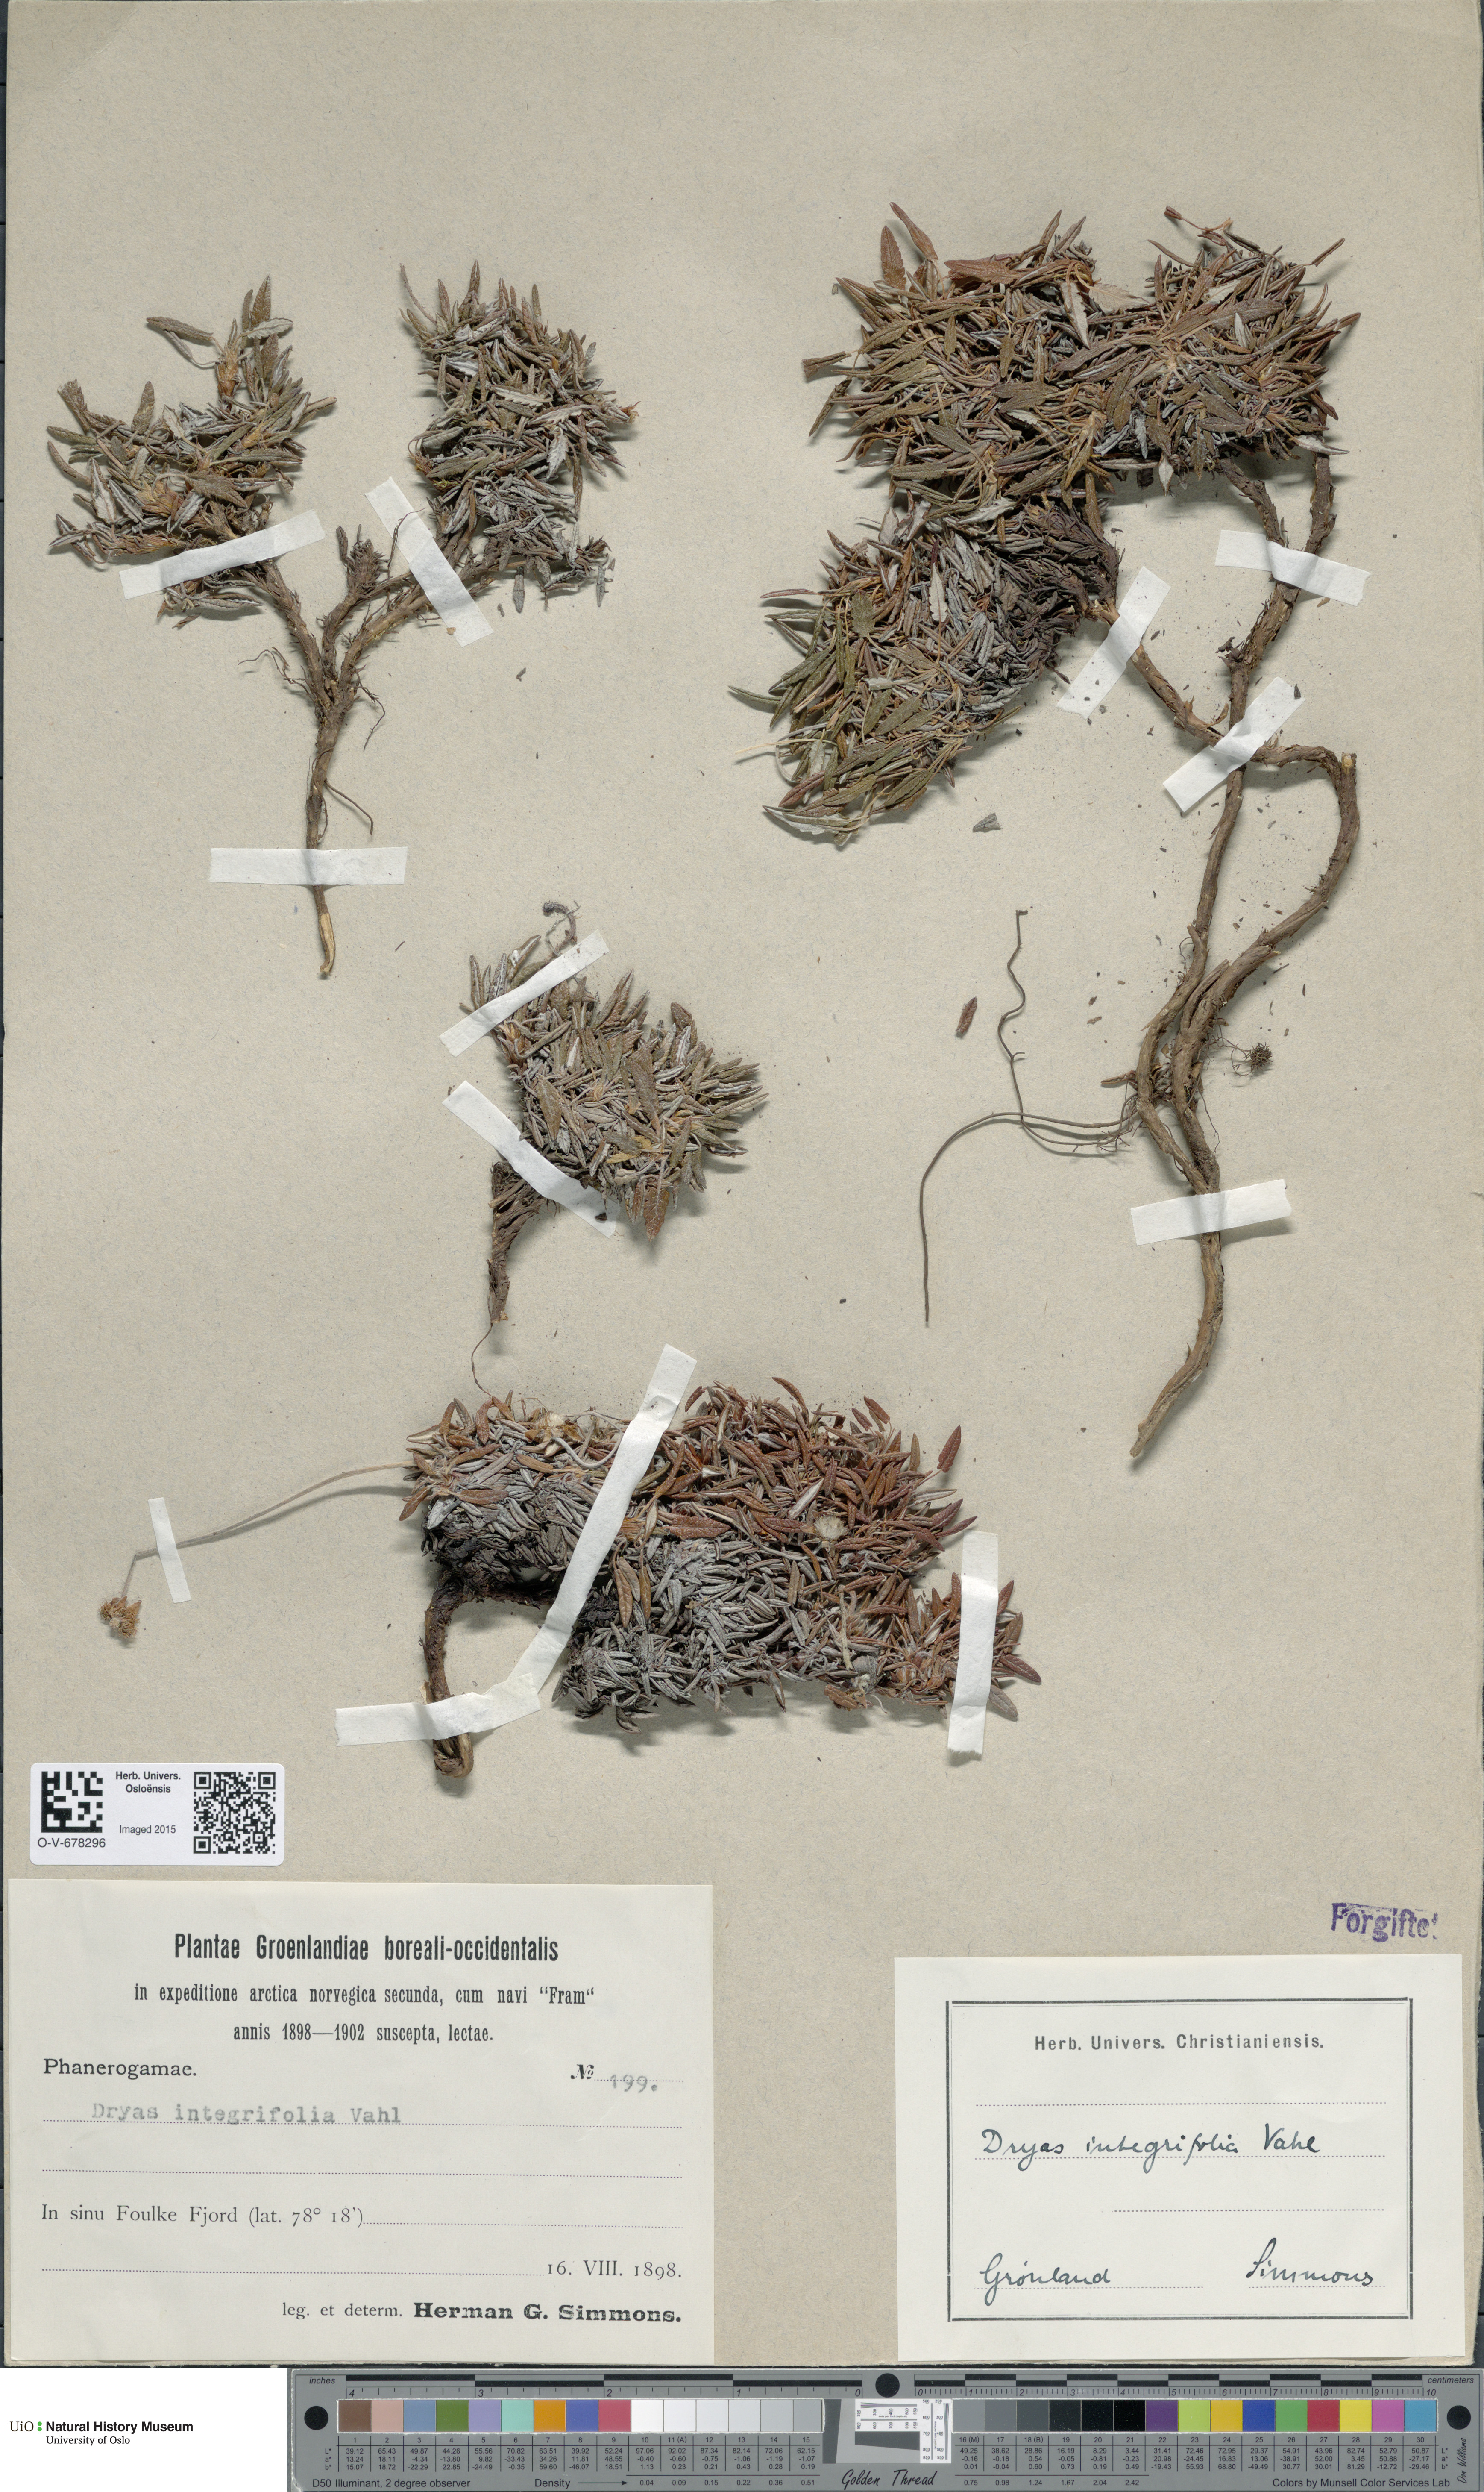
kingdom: Plantae
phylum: Tracheophyta
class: Magnoliopsida
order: Rosales
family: Rosaceae
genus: Dryas
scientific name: Dryas integrifolia
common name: Entire-leaved mountain avens
